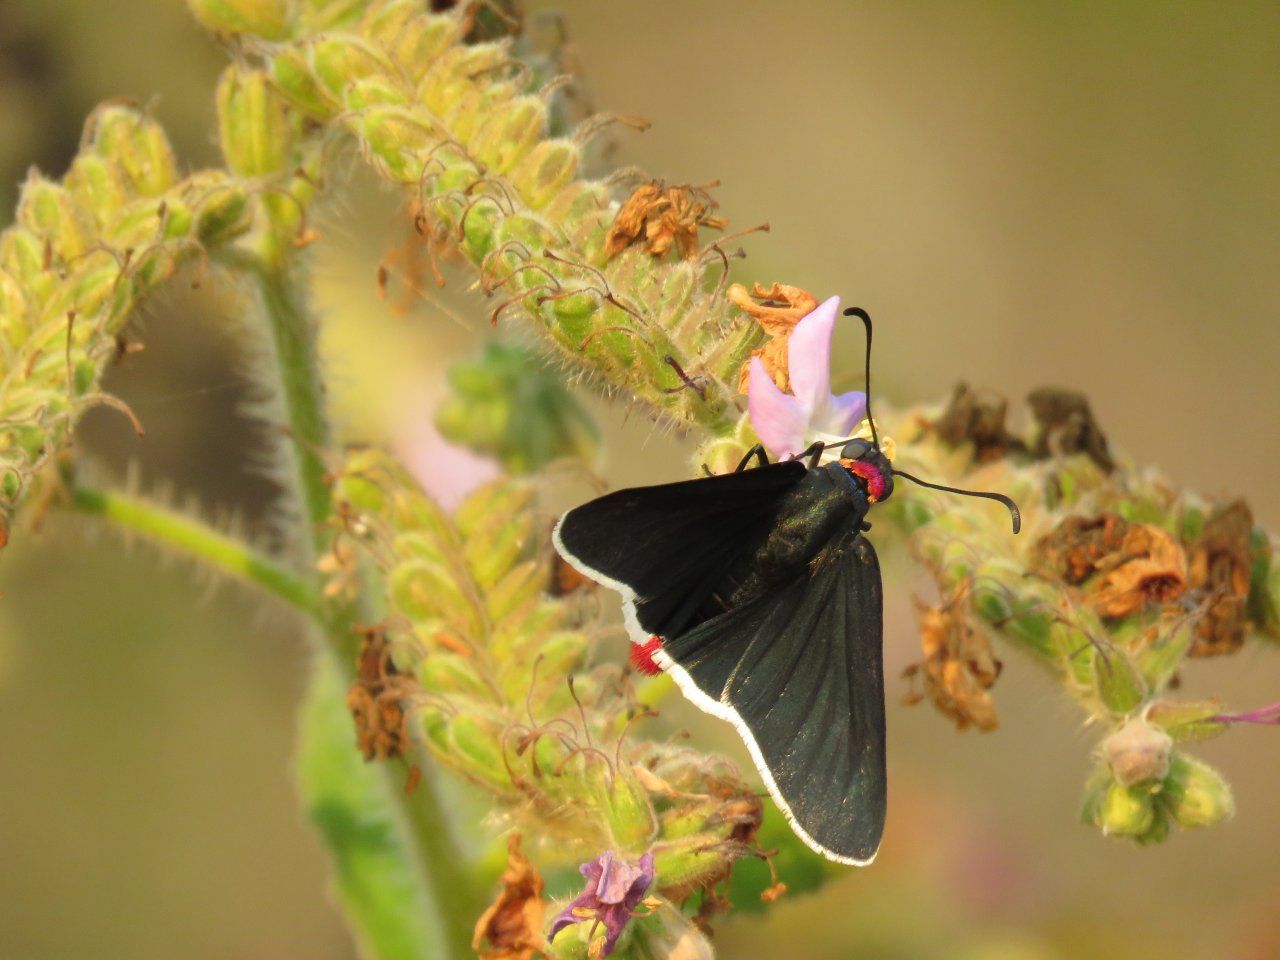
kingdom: Animalia
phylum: Arthropoda
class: Insecta
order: Lepidoptera
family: Hesperiidae
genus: Mysoria
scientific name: Mysoria affinis
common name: Red-collared Firetip
